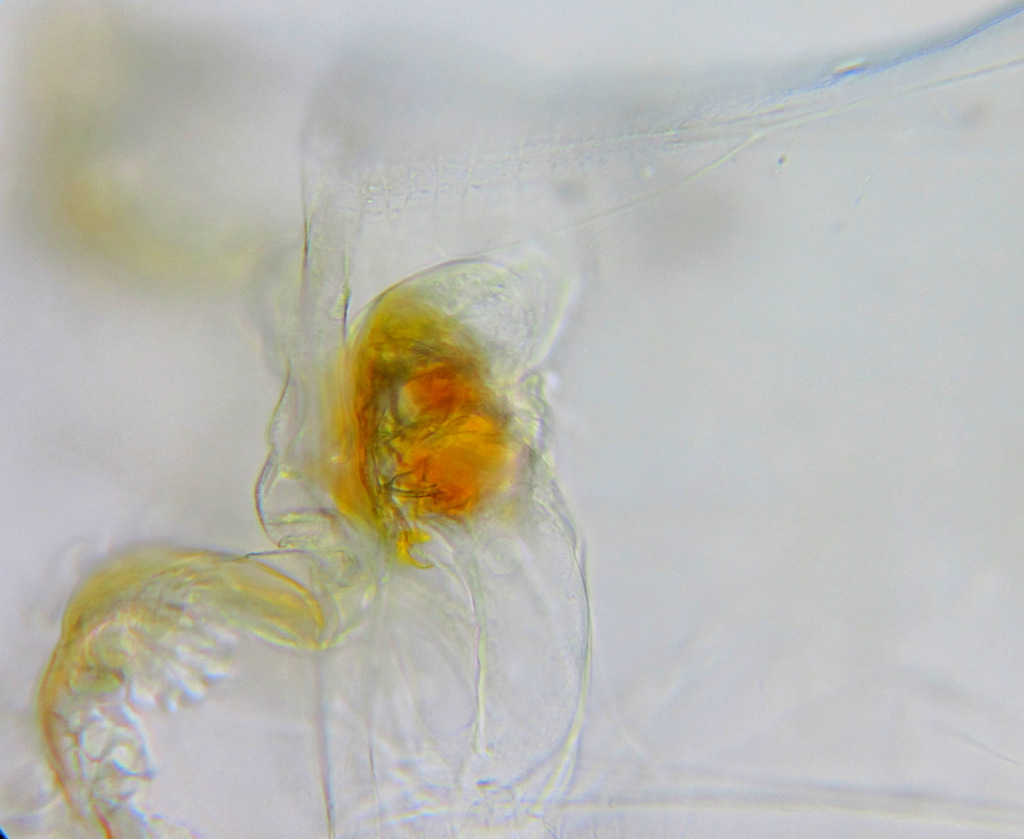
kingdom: Animalia
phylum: Rotifera
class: Eurotatoria
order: Ploima
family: Asplanchnidae
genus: Asplanchna
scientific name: Asplanchna priodonta
